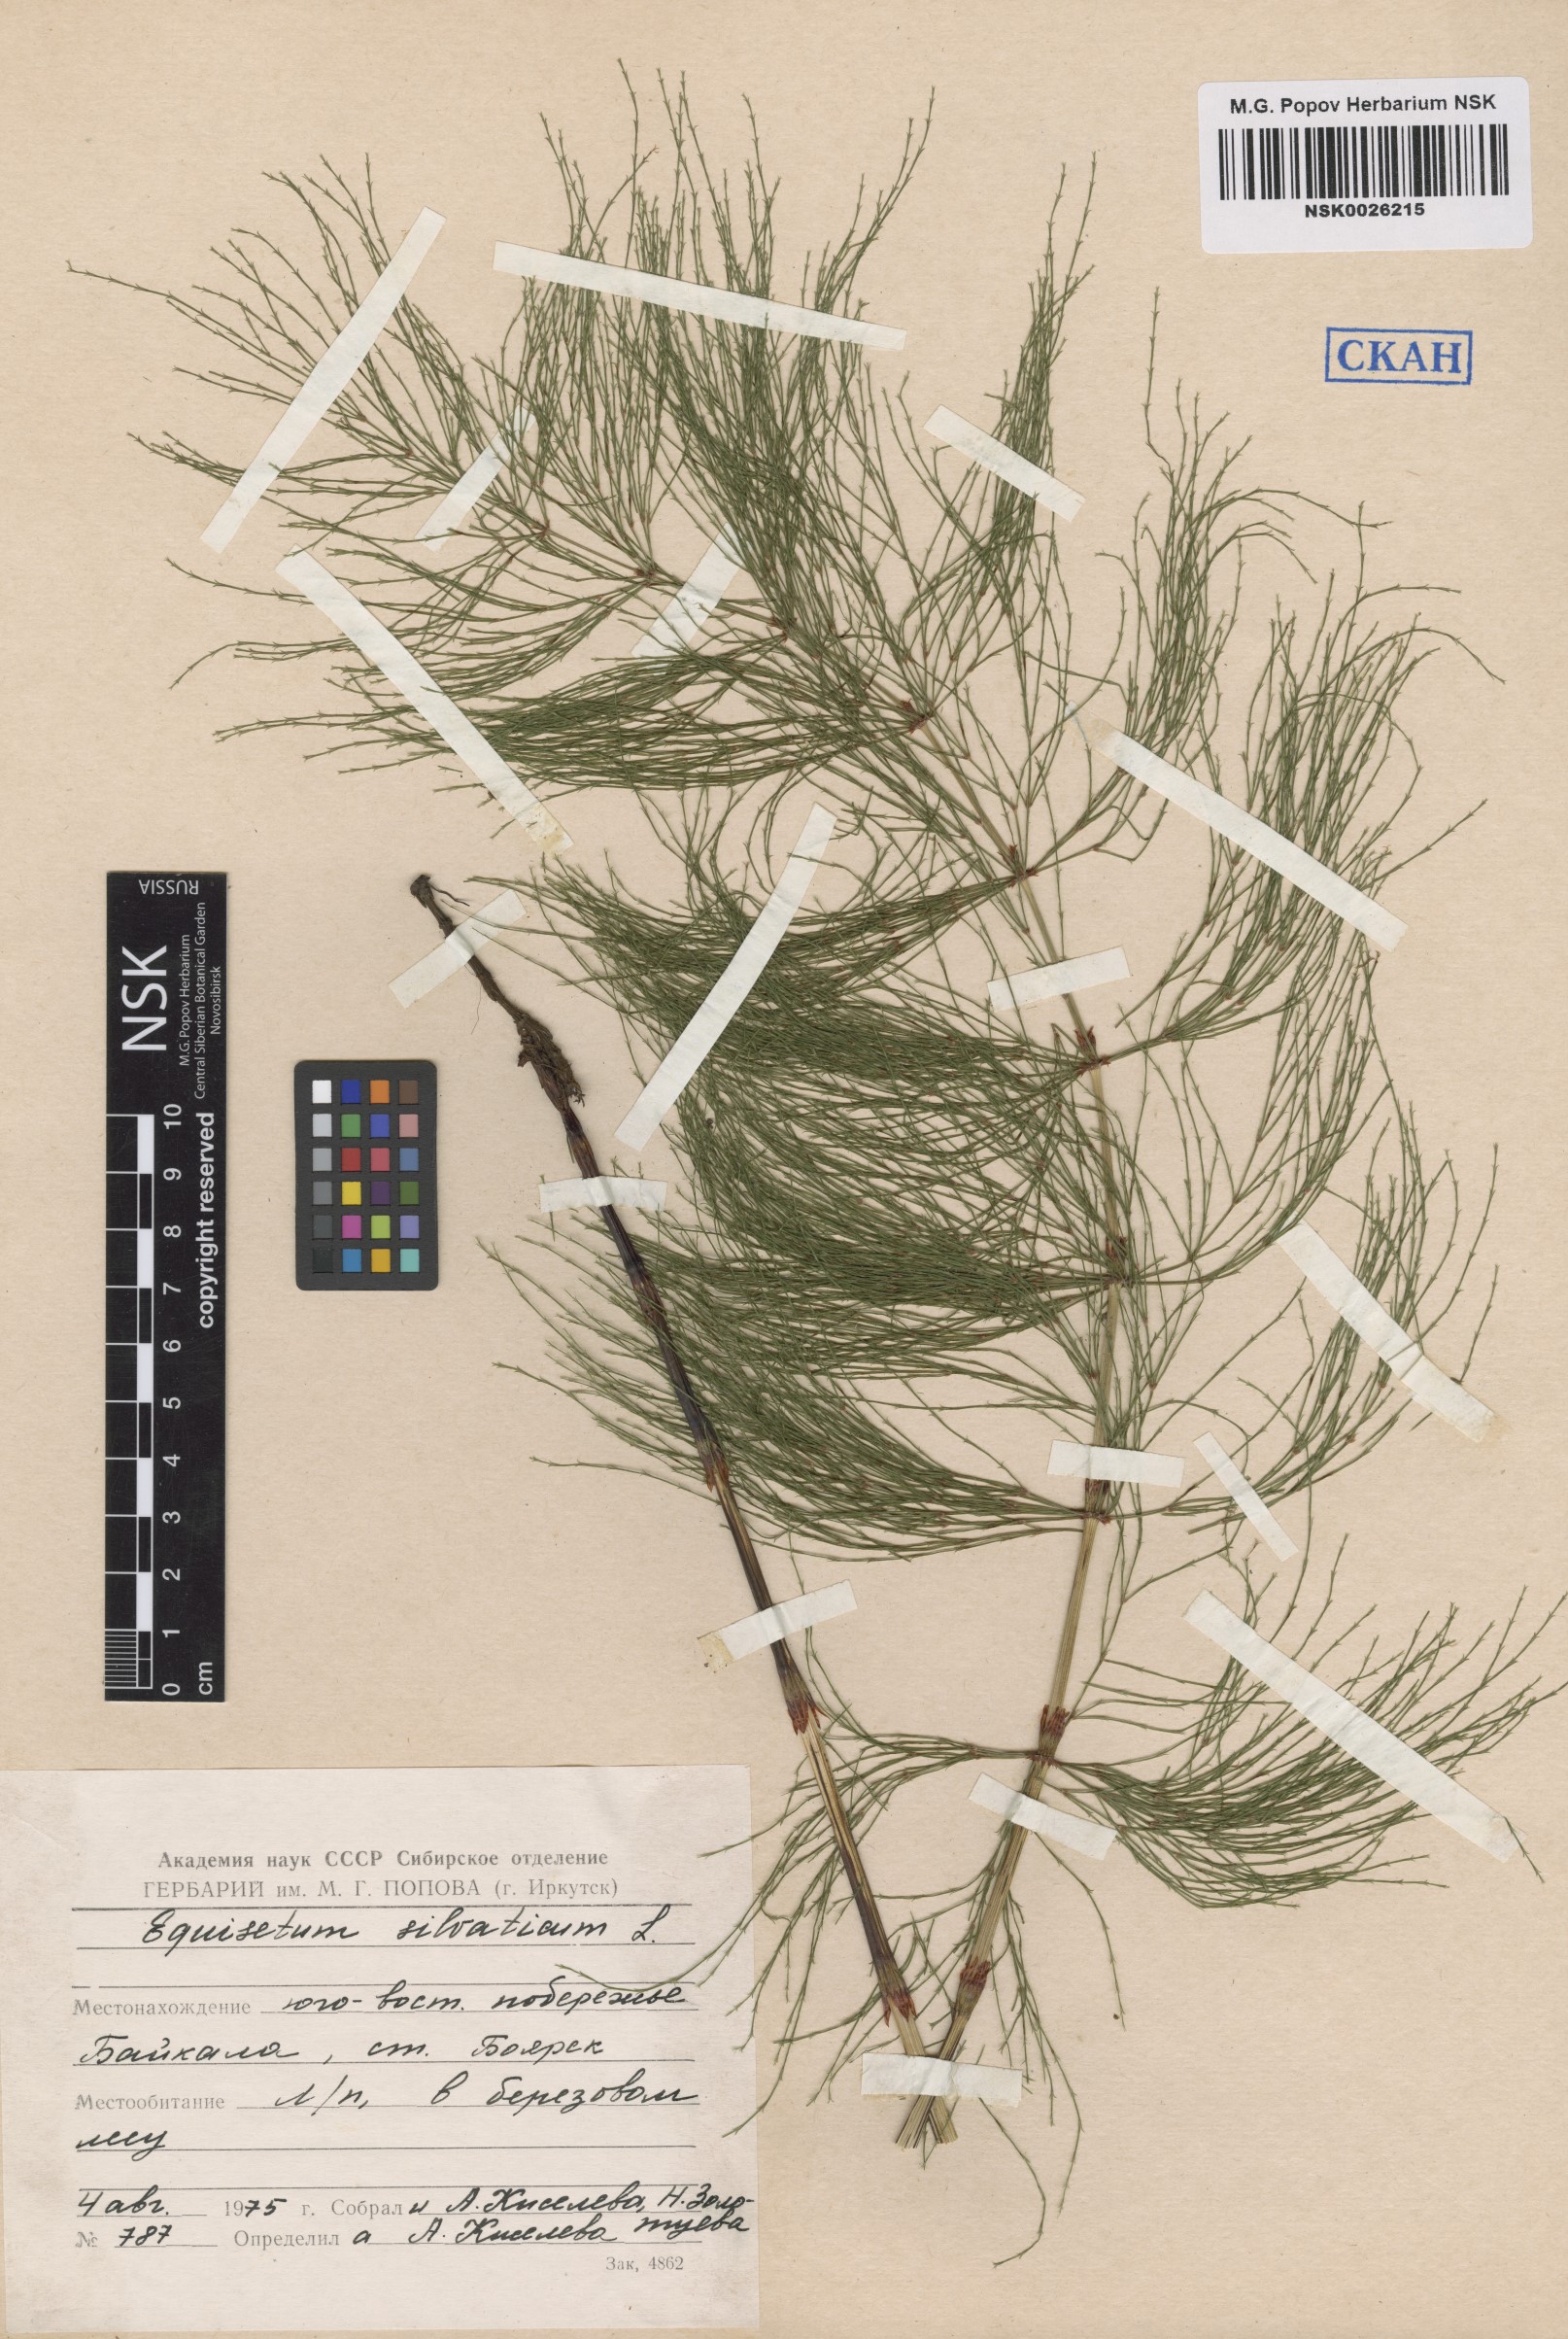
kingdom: Plantae
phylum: Tracheophyta
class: Polypodiopsida
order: Equisetales
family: Equisetaceae
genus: Equisetum
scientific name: Equisetum sylvaticum
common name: Wood horsetail
